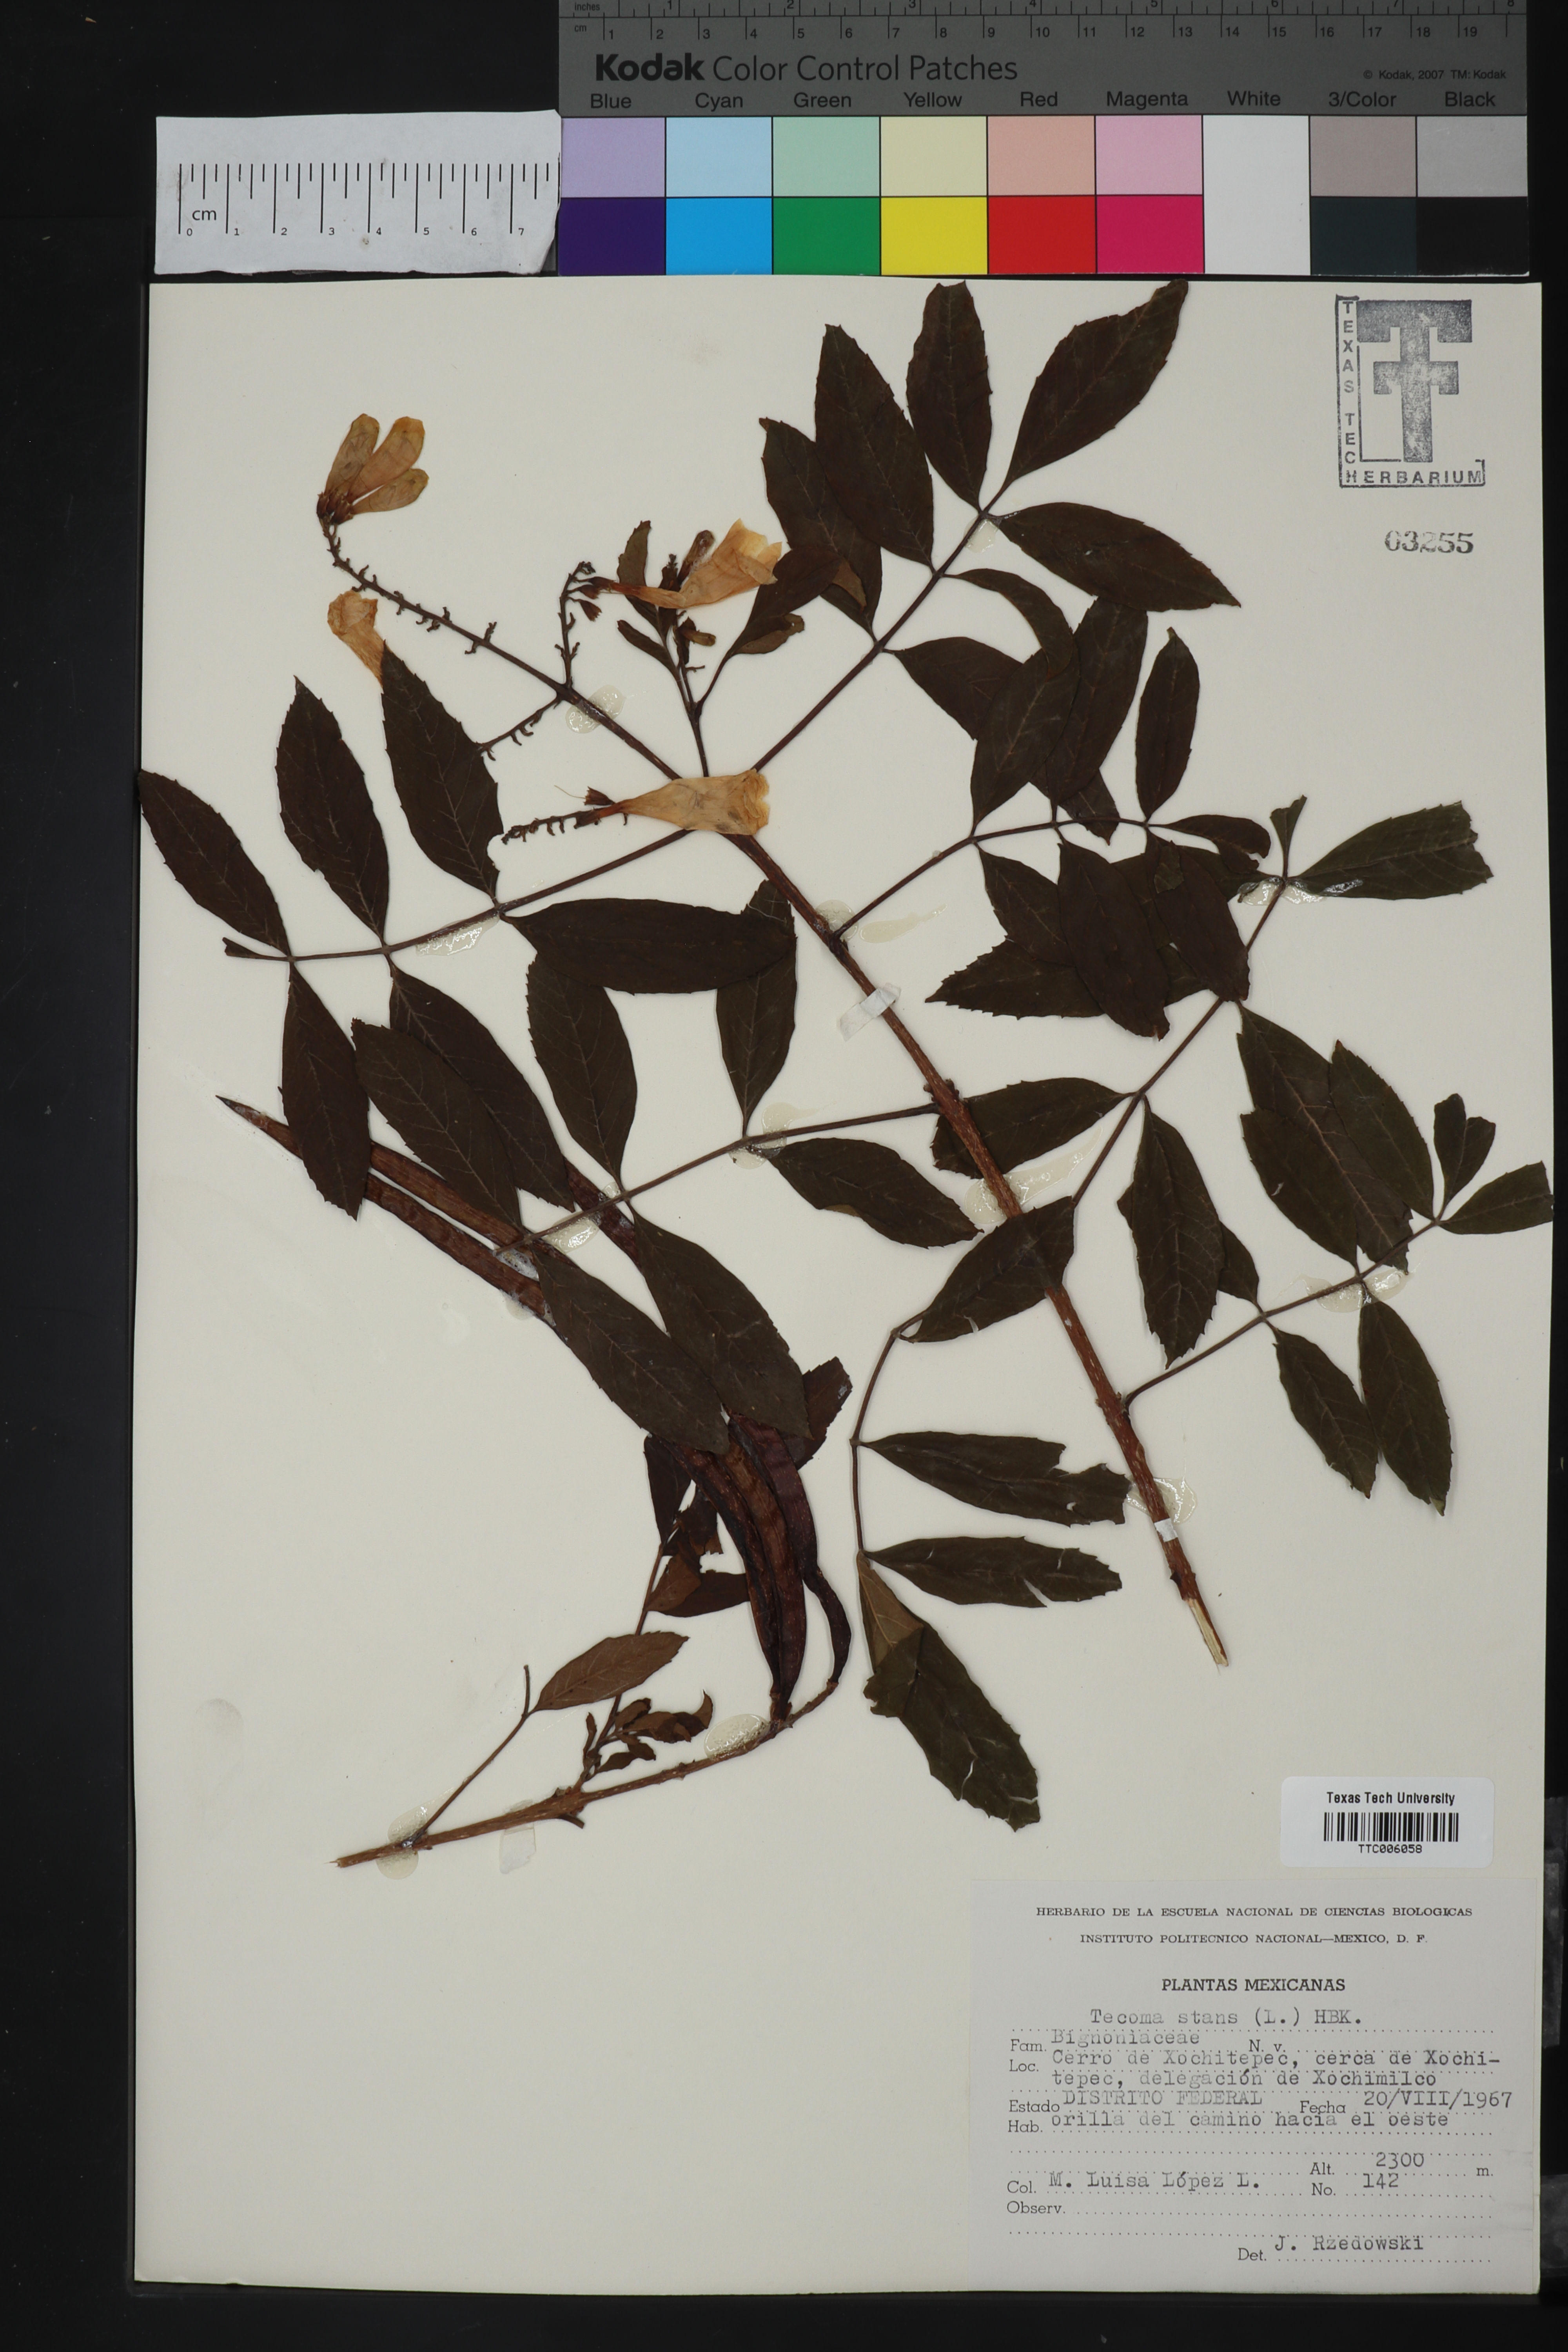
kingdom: Plantae
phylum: Tracheophyta
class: Magnoliopsida
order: Lamiales
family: Bignoniaceae
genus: Tecoma
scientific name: Tecoma stans
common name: Yellow trumpetbush
